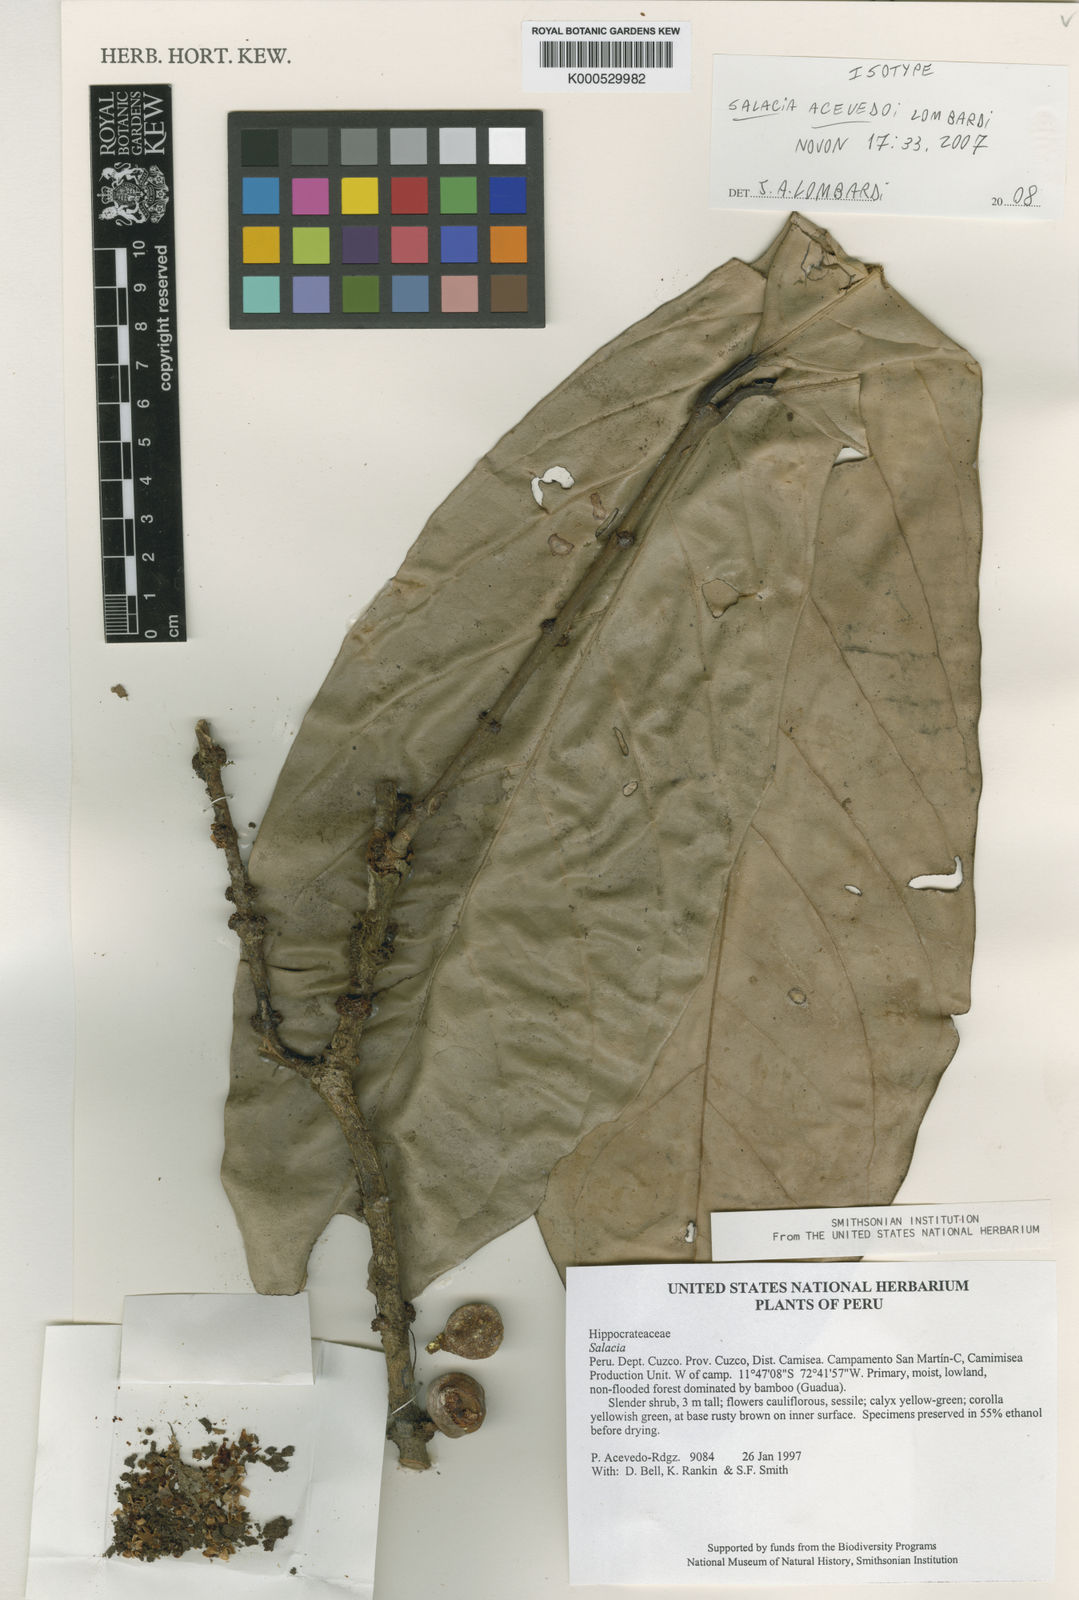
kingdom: Plantae
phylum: Tracheophyta
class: Magnoliopsida
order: Celastrales
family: Celastraceae
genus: Salacia
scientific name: Salacia acevedoi
